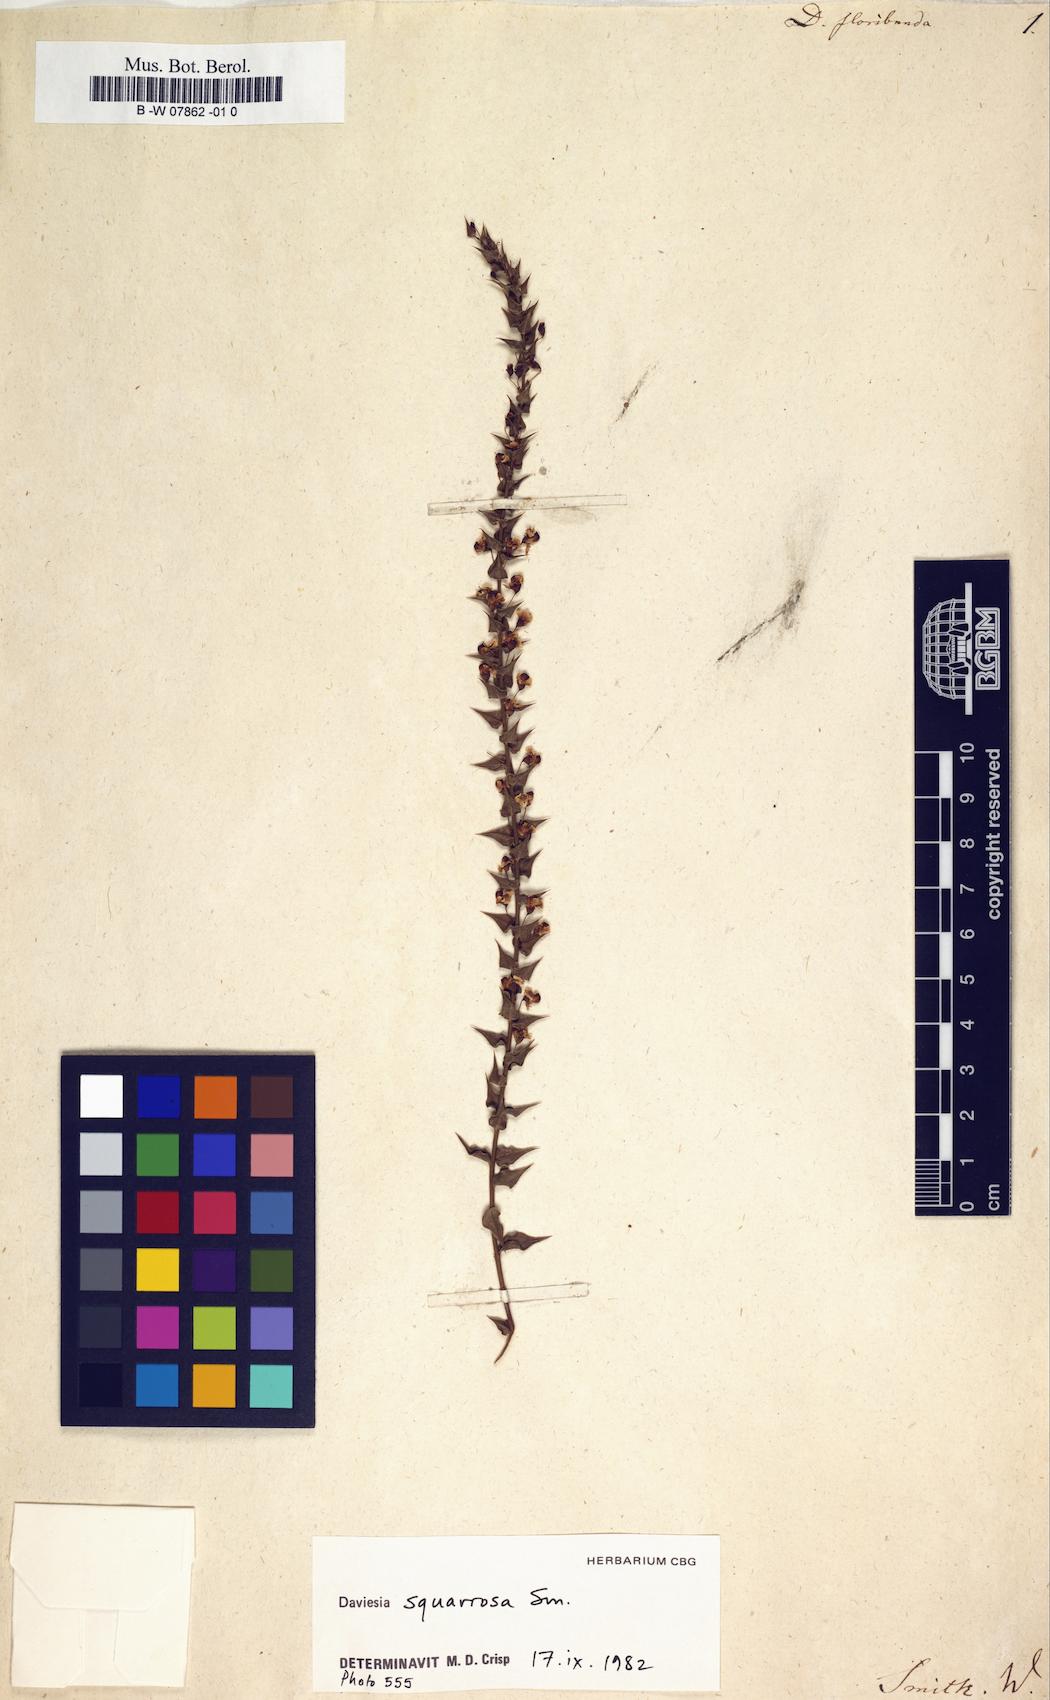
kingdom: Plantae
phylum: Tracheophyta
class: Magnoliopsida
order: Fabales
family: Fabaceae
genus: Daviesia
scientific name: Daviesia
